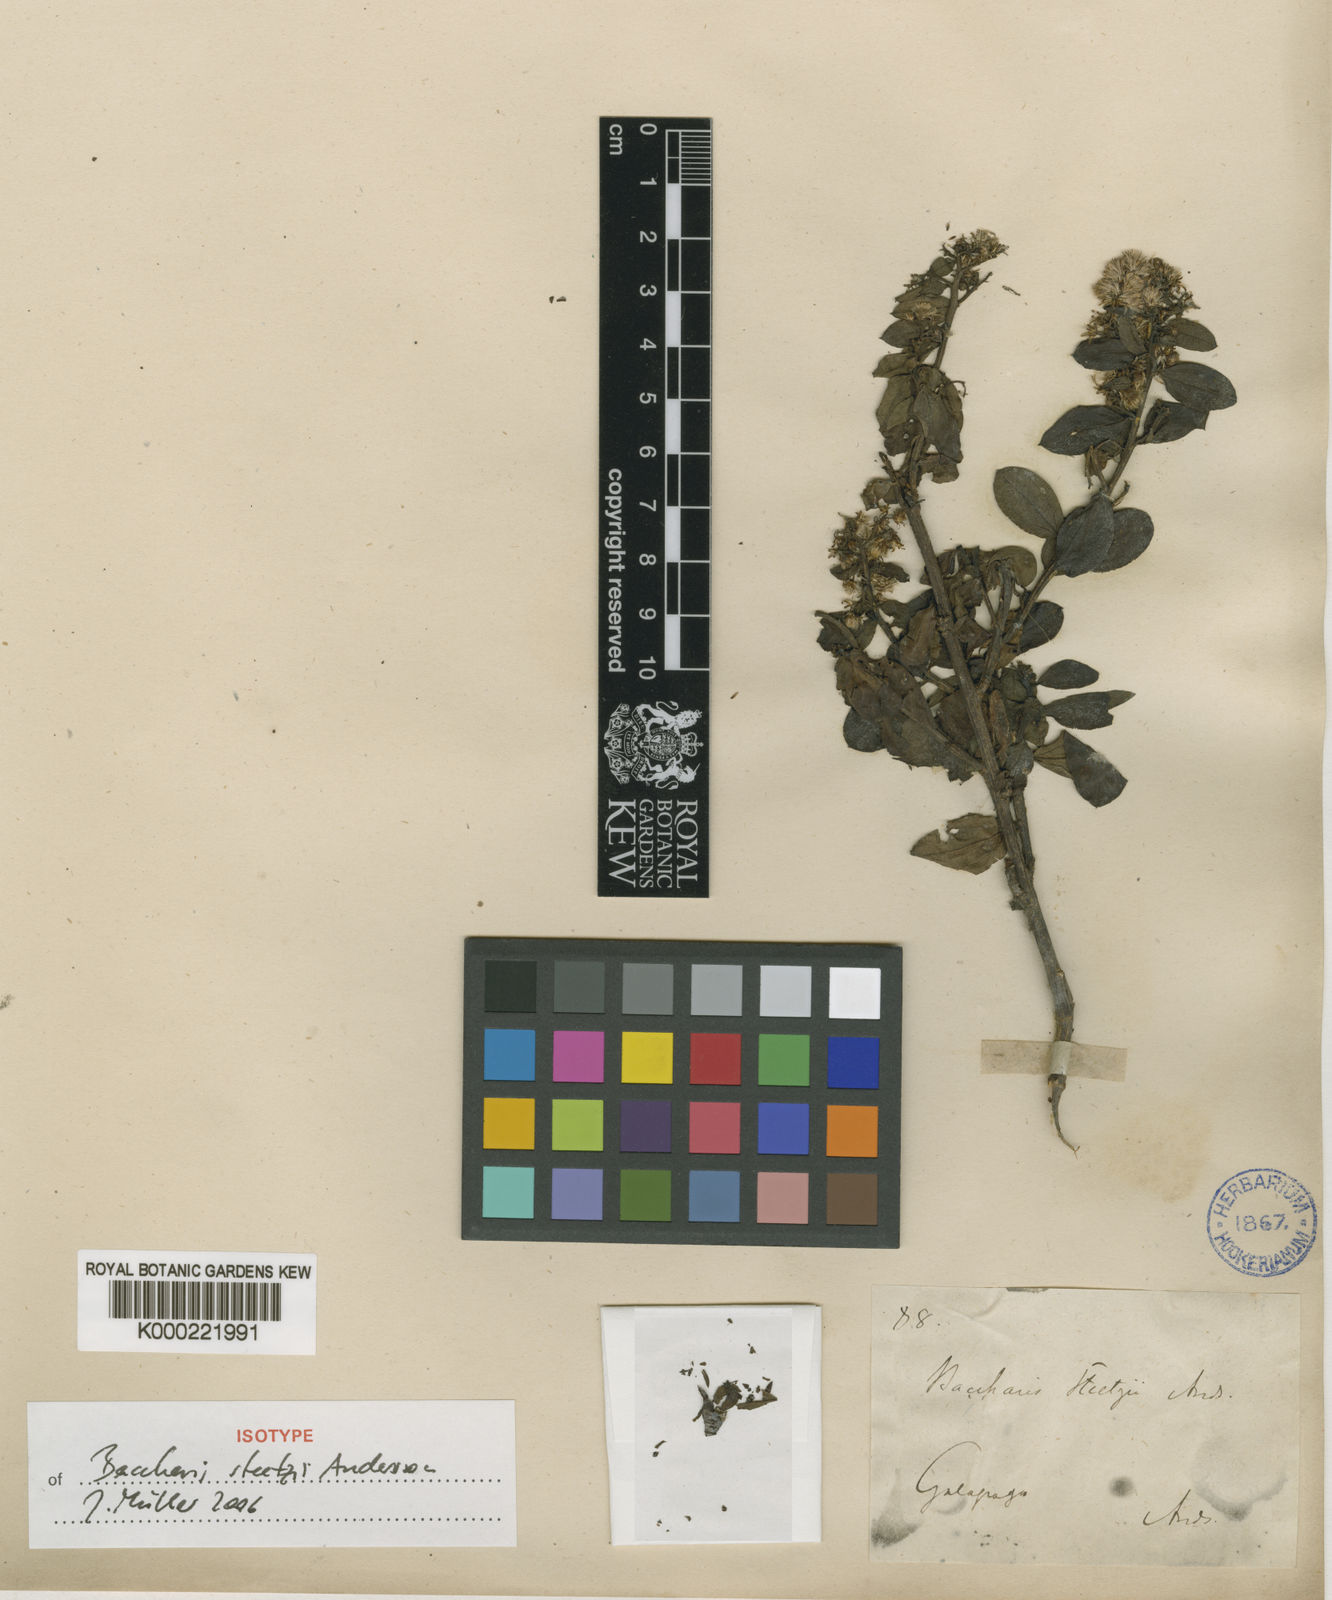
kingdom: Plantae
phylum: Tracheophyta
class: Magnoliopsida
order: Asterales
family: Asteraceae
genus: Baccharis
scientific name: Baccharis steetzii
